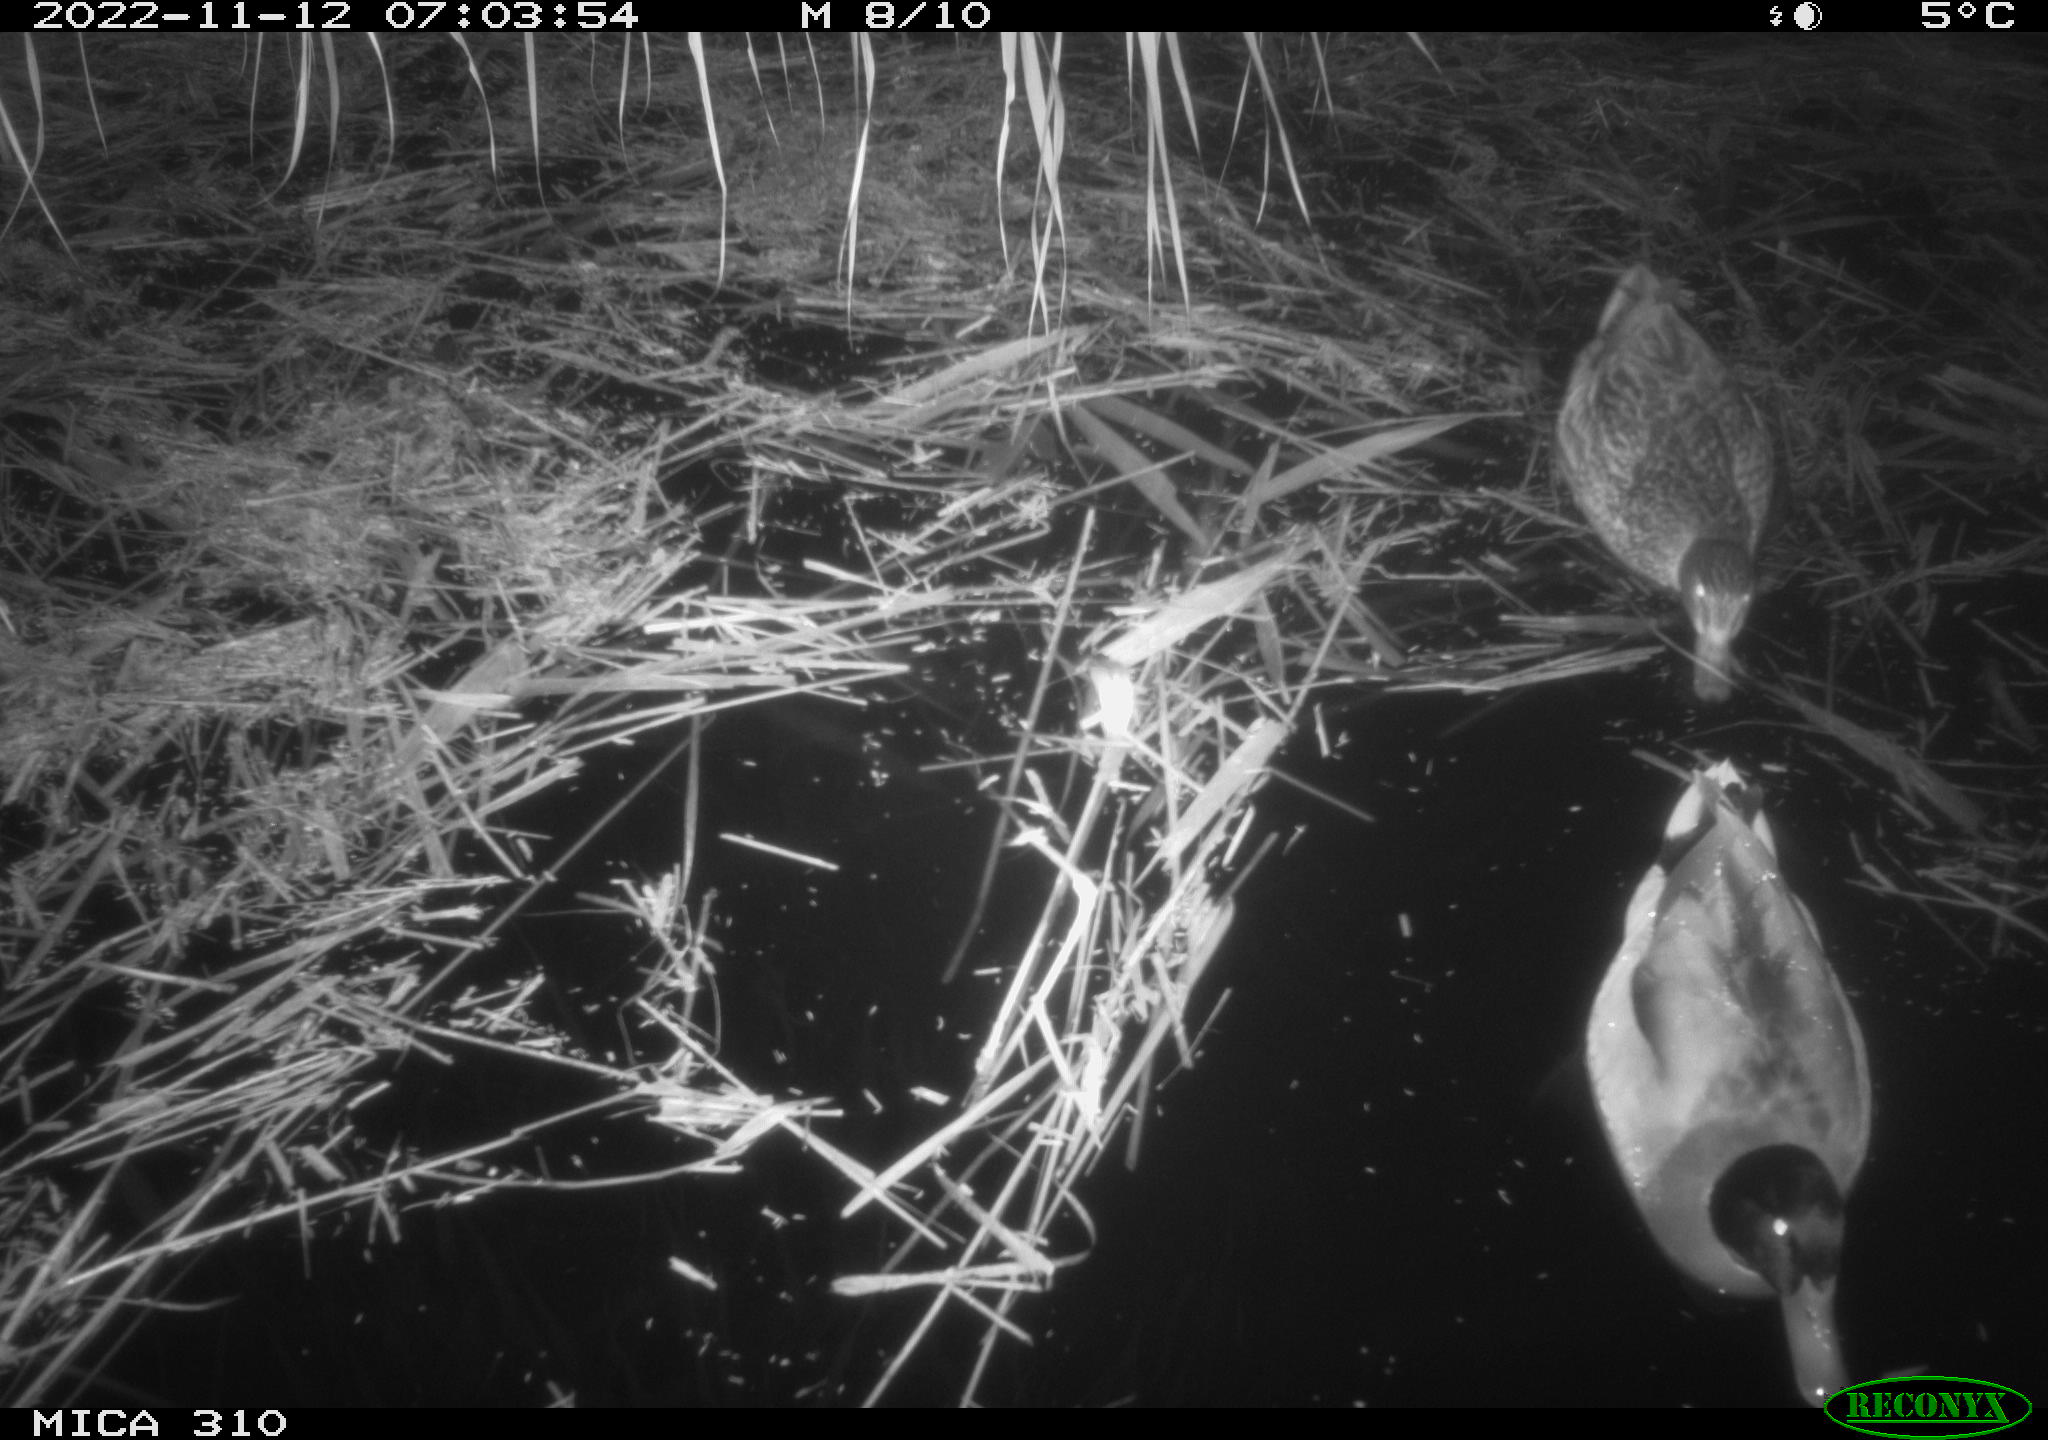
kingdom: Animalia
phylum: Chordata
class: Aves
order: Anseriformes
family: Anatidae
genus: Anas
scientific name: Anas
